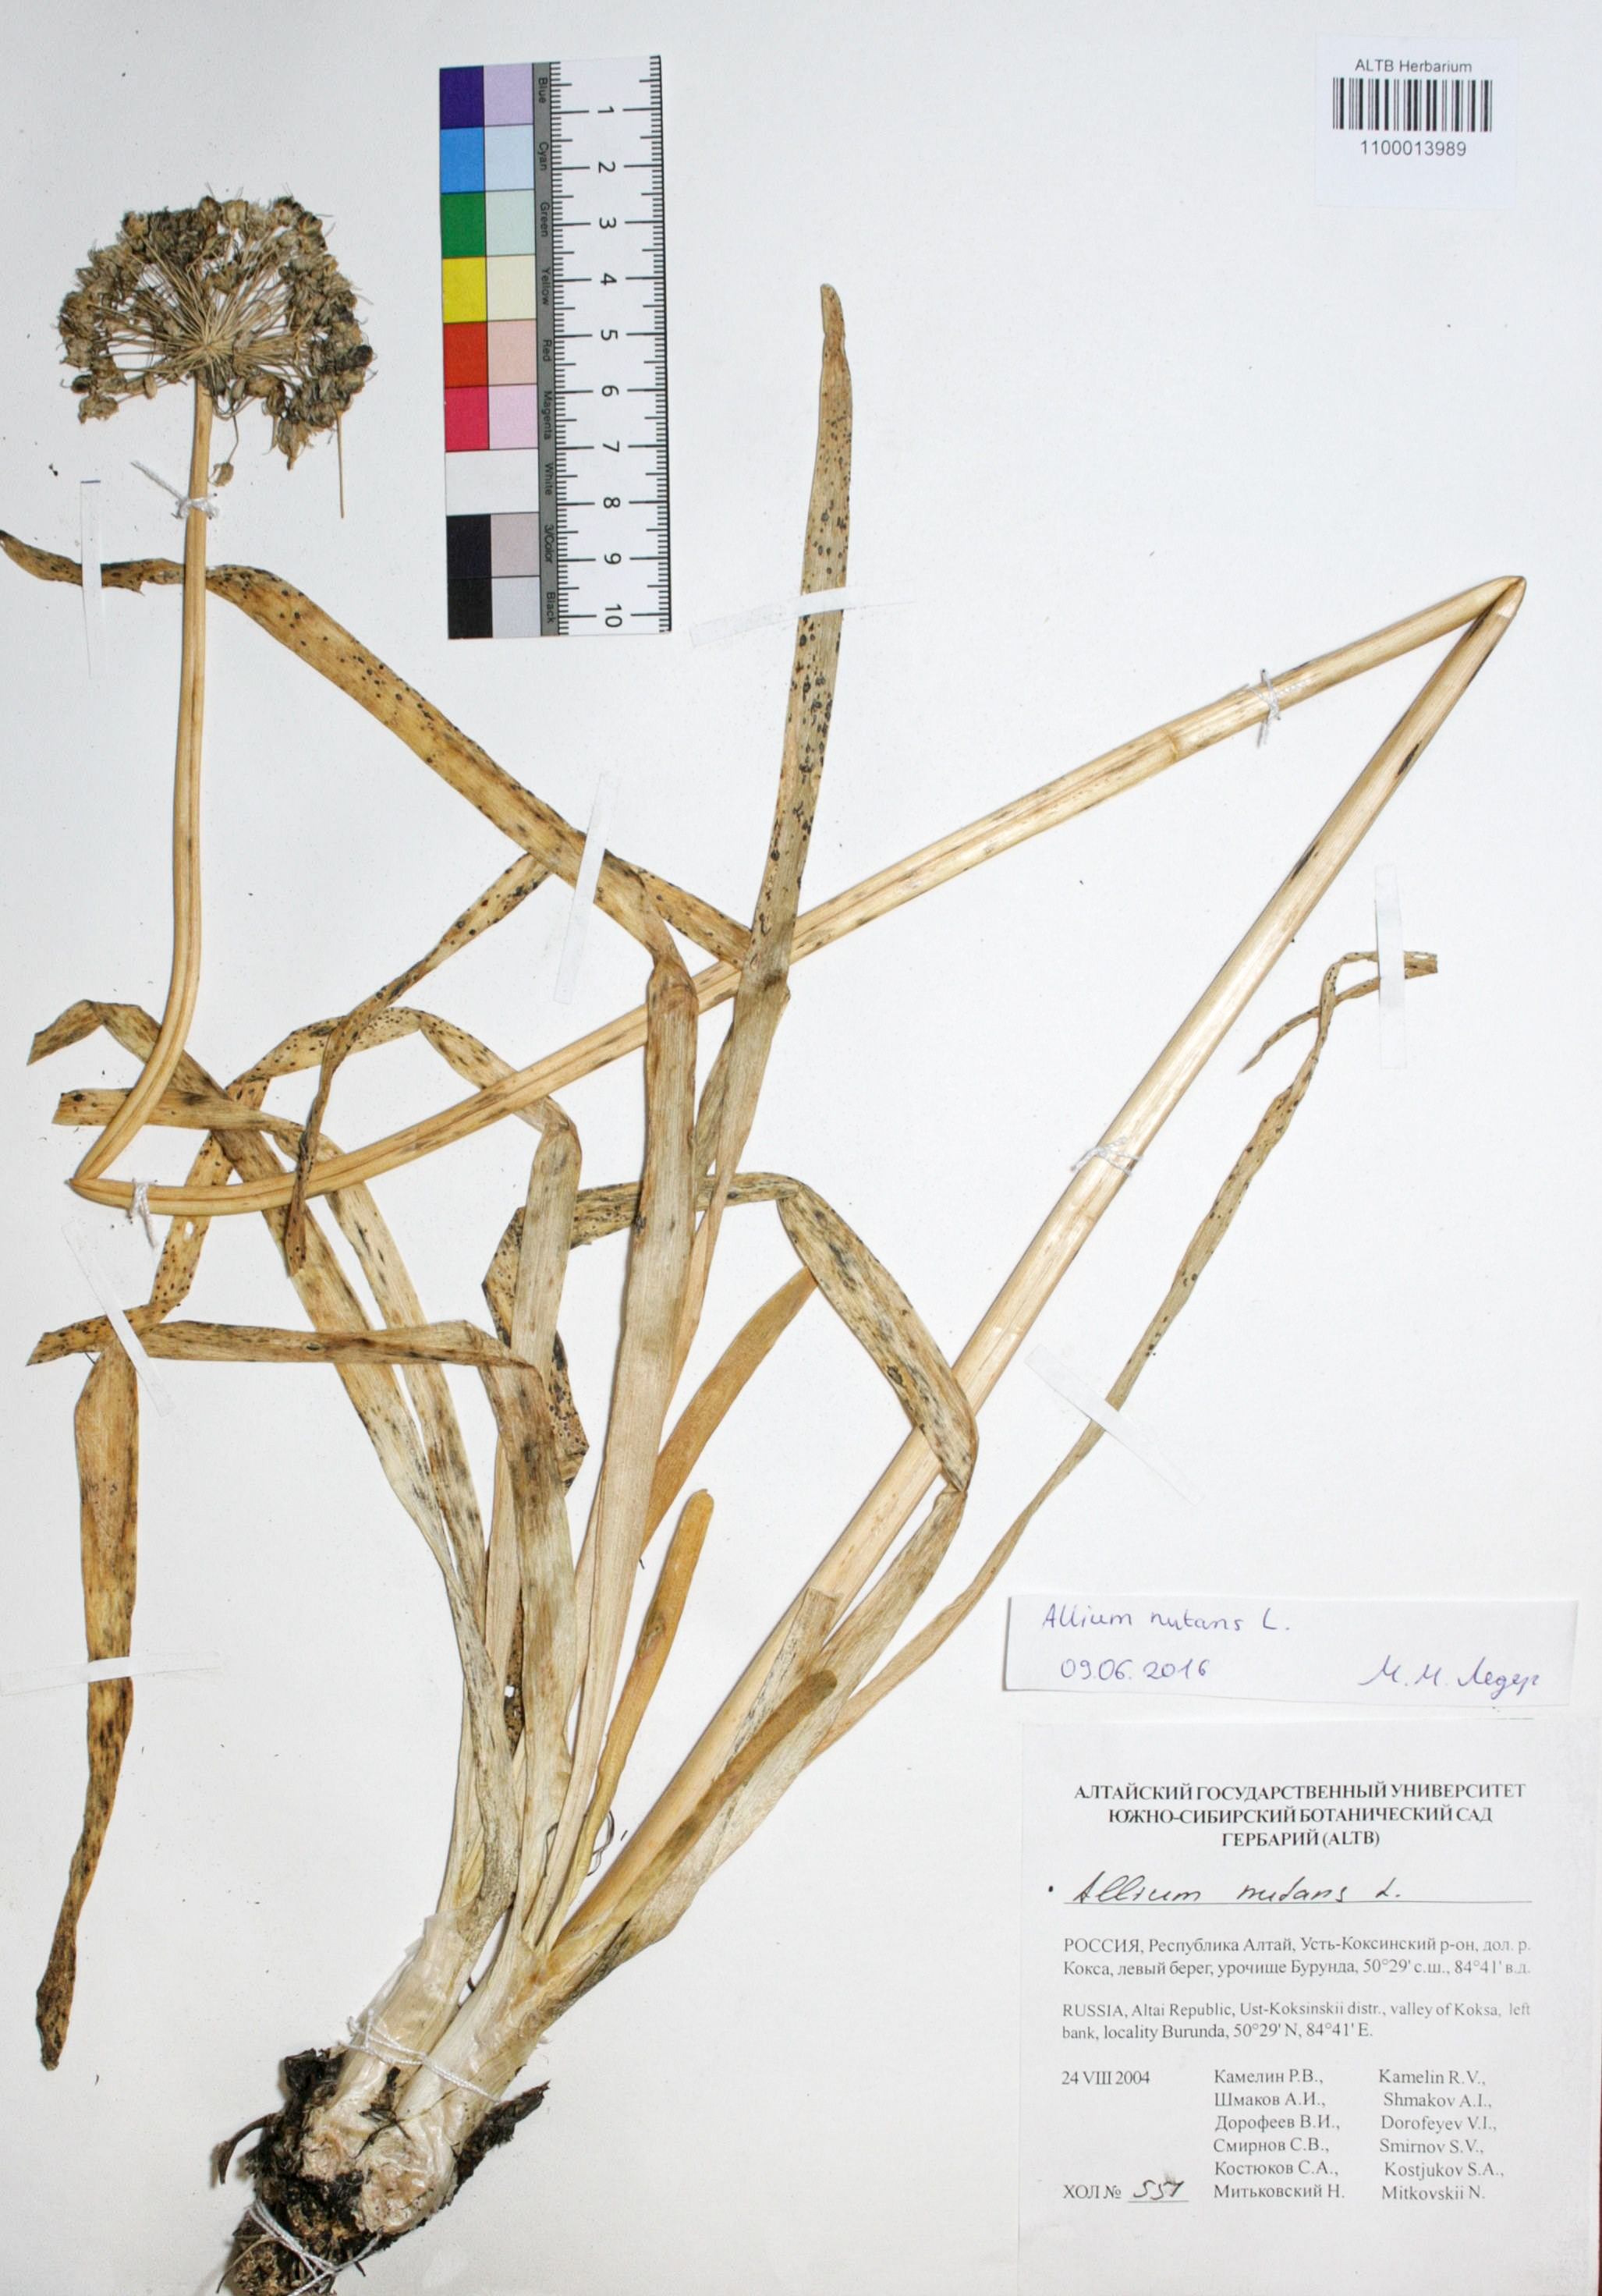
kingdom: Plantae
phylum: Tracheophyta
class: Liliopsida
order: Asparagales
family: Amaryllidaceae
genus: Allium
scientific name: Allium nutans
